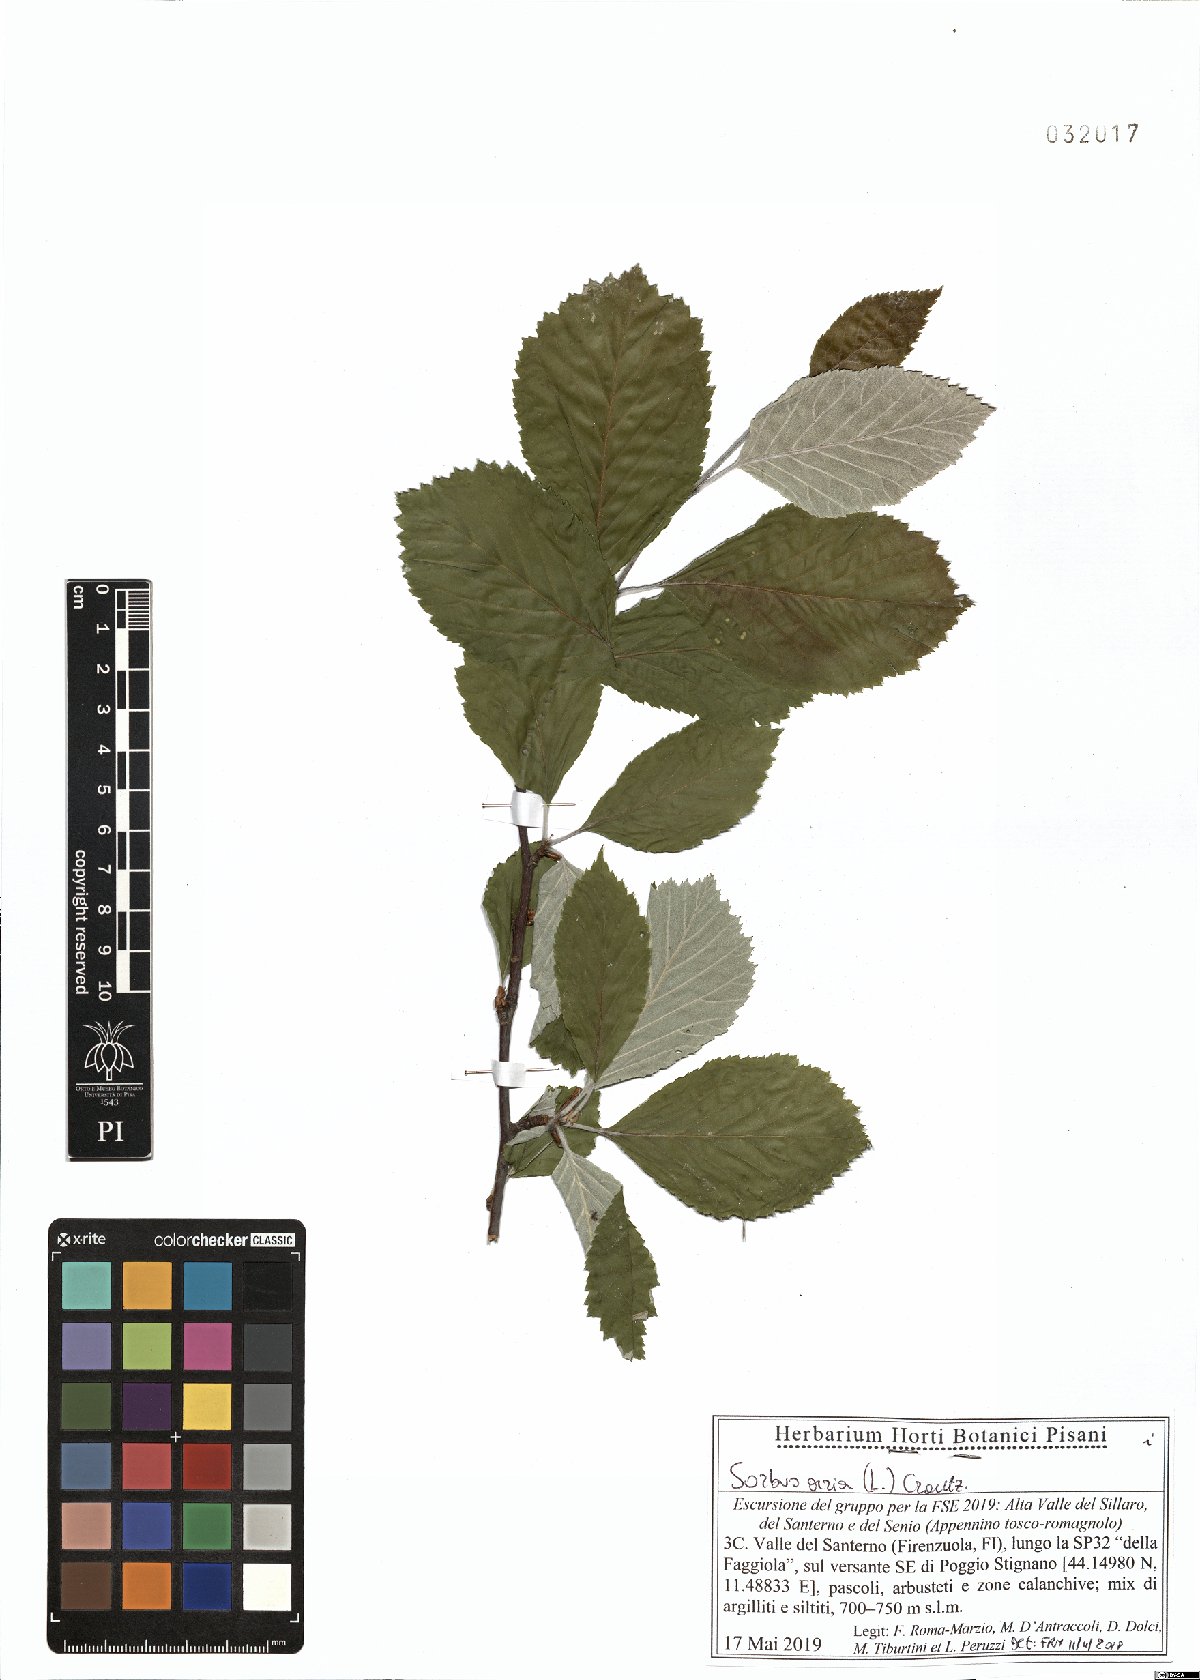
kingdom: Plantae
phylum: Tracheophyta
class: Magnoliopsida
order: Rosales
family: Rosaceae
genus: Aria
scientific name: Aria edulis
